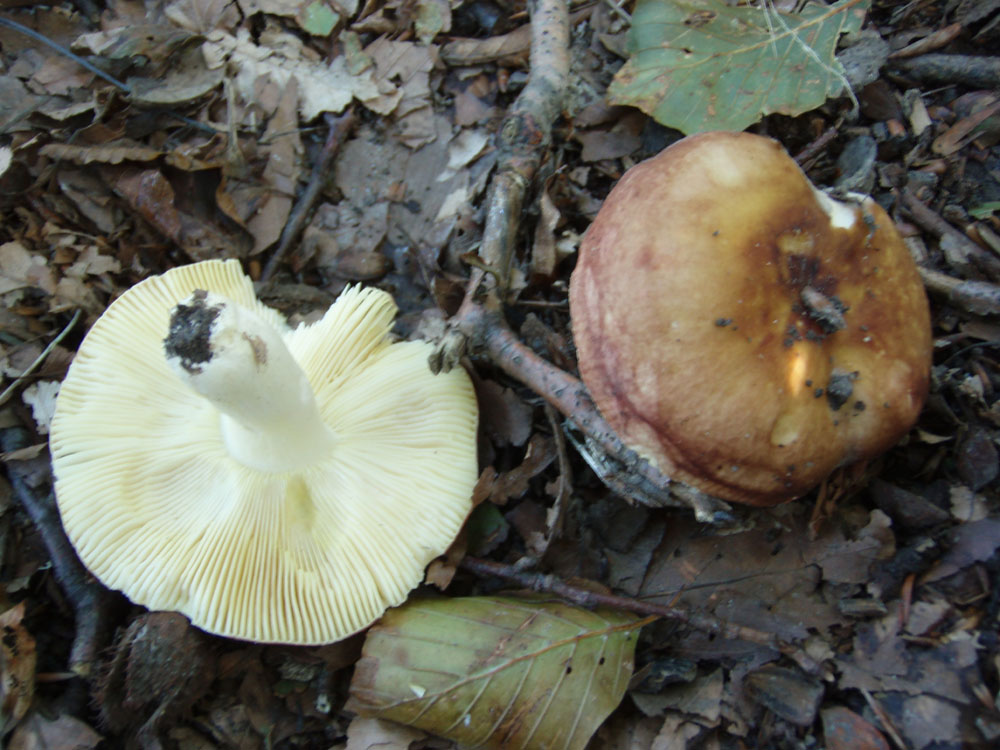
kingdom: Fungi
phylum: Basidiomycota
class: Agaricomycetes
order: Russulales
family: Russulaceae
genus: Russula
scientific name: Russula
